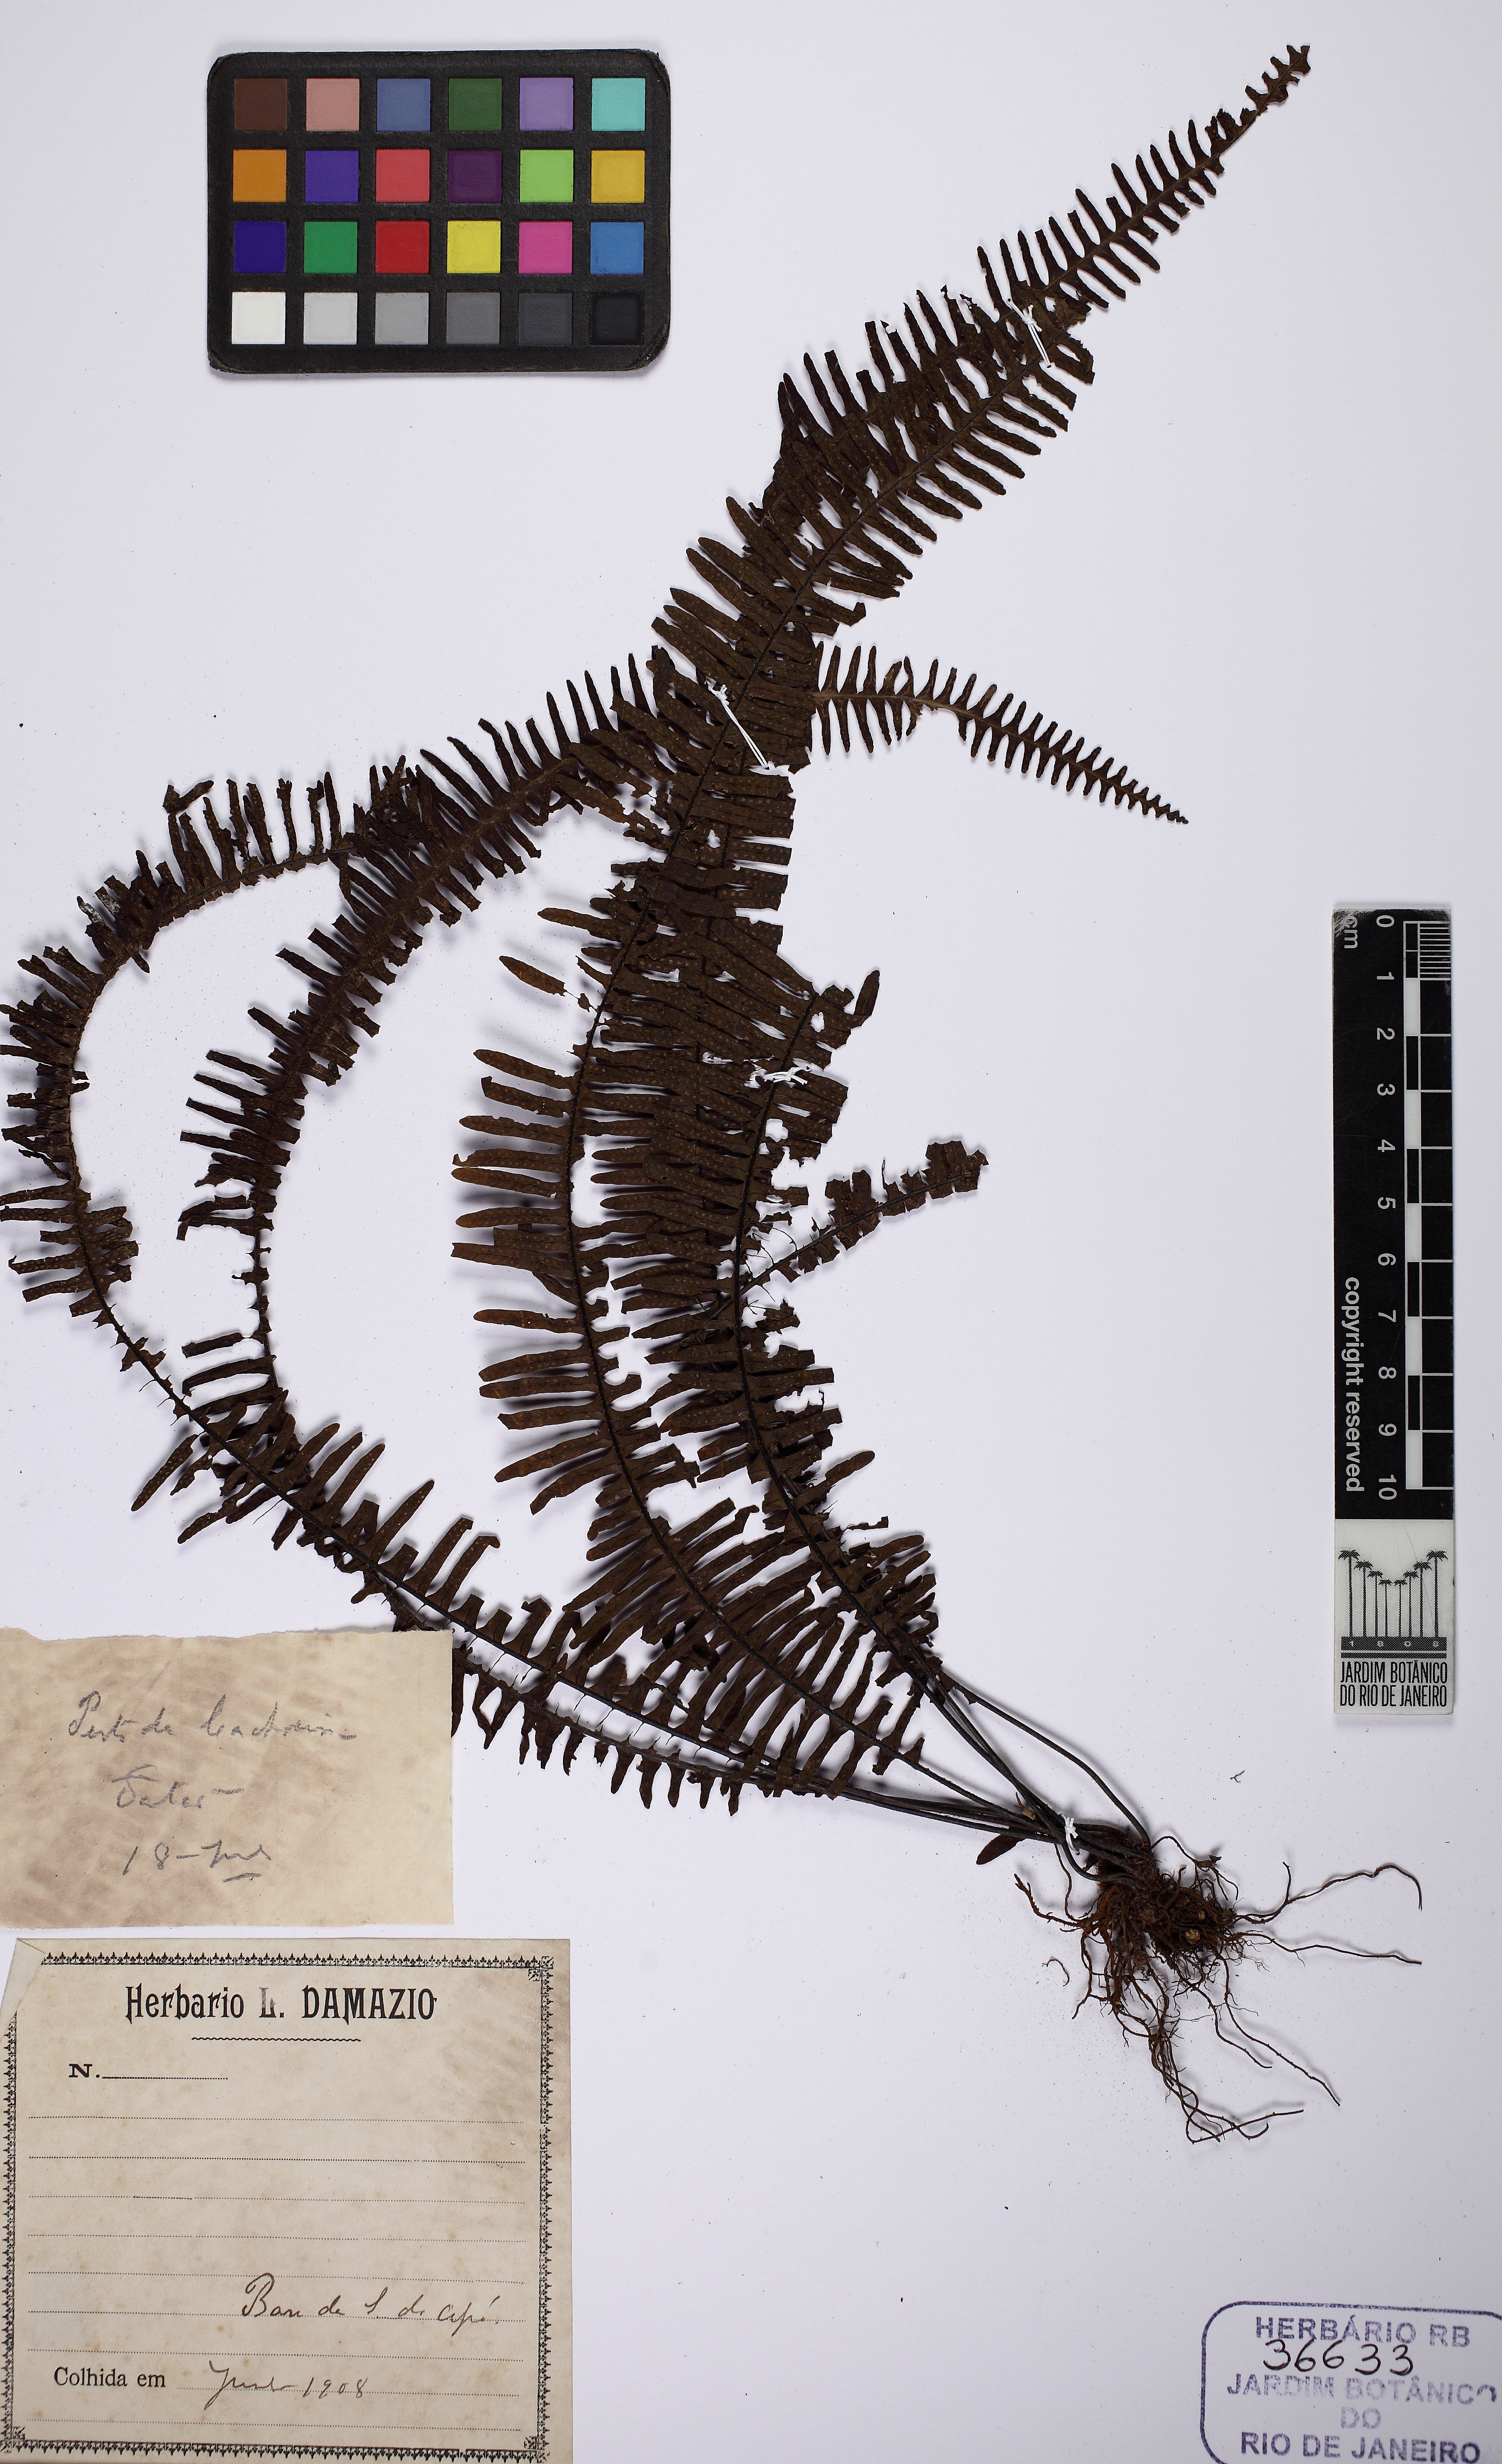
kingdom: Plantae
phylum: Tracheophyta
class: Polypodiopsida
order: Polypodiales
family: Polypodiaceae
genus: Pecluma
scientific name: Pecluma plumula
